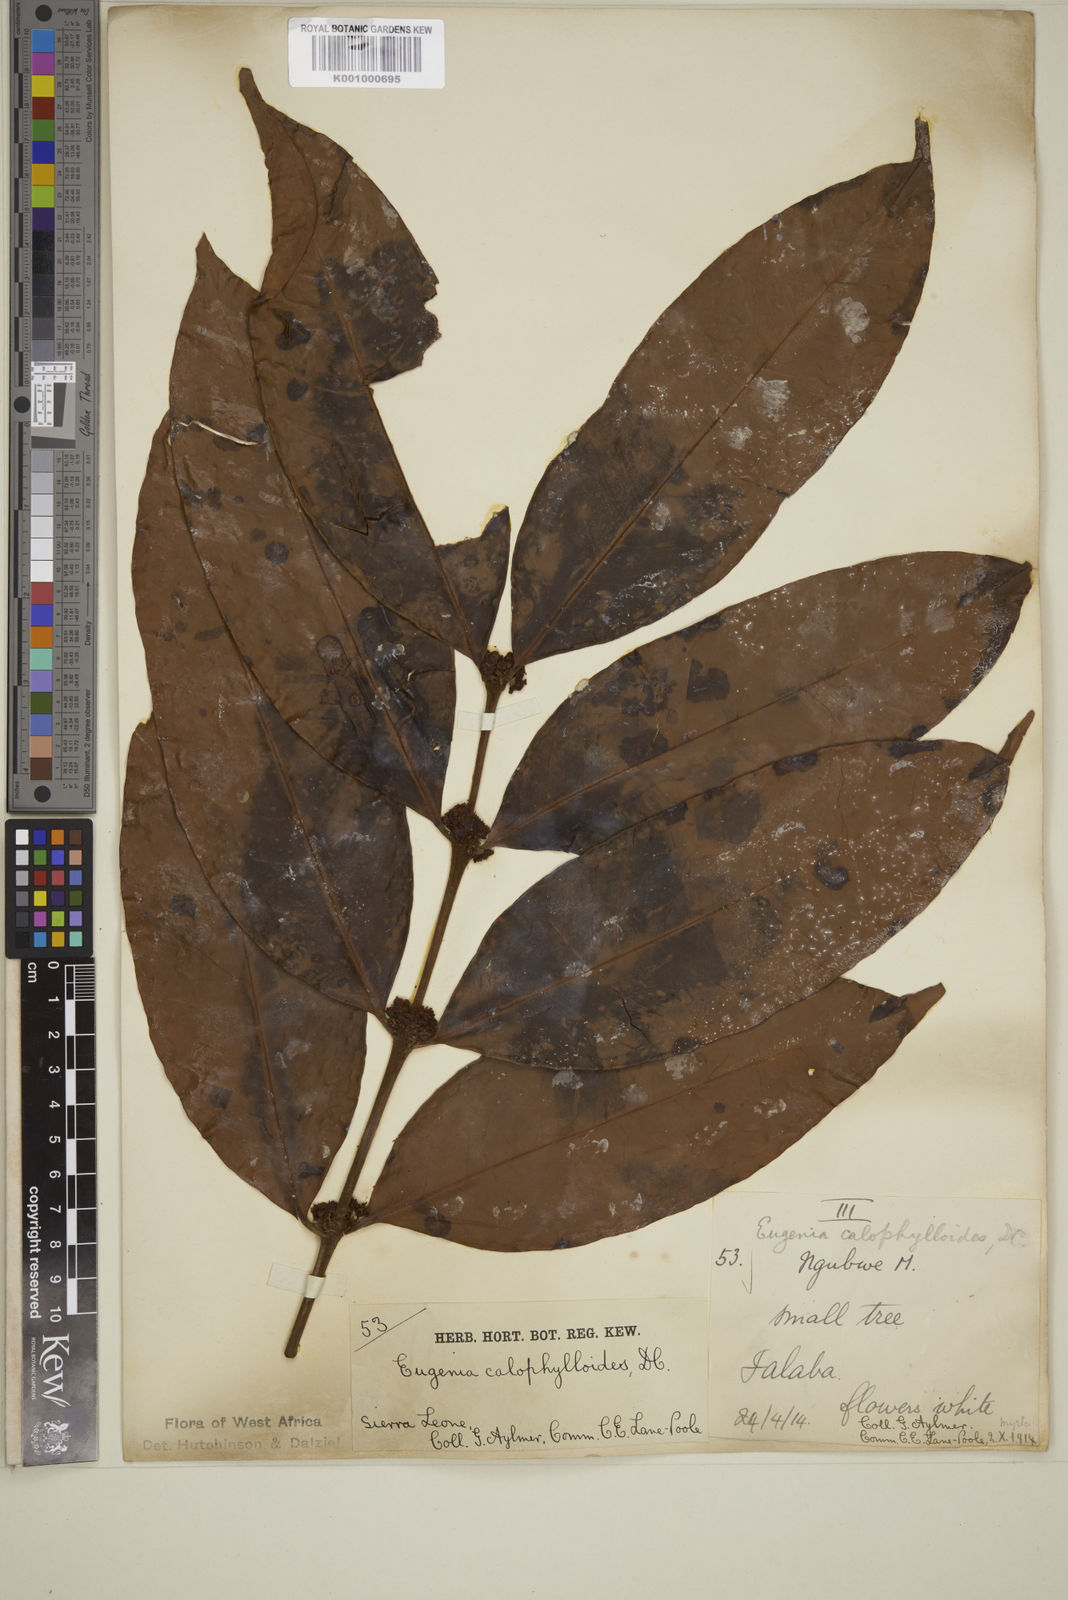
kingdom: Plantae
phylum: Tracheophyta
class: Magnoliopsida
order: Myrtales
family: Myrtaceae
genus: Eugenia
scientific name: Eugenia calophylloides
